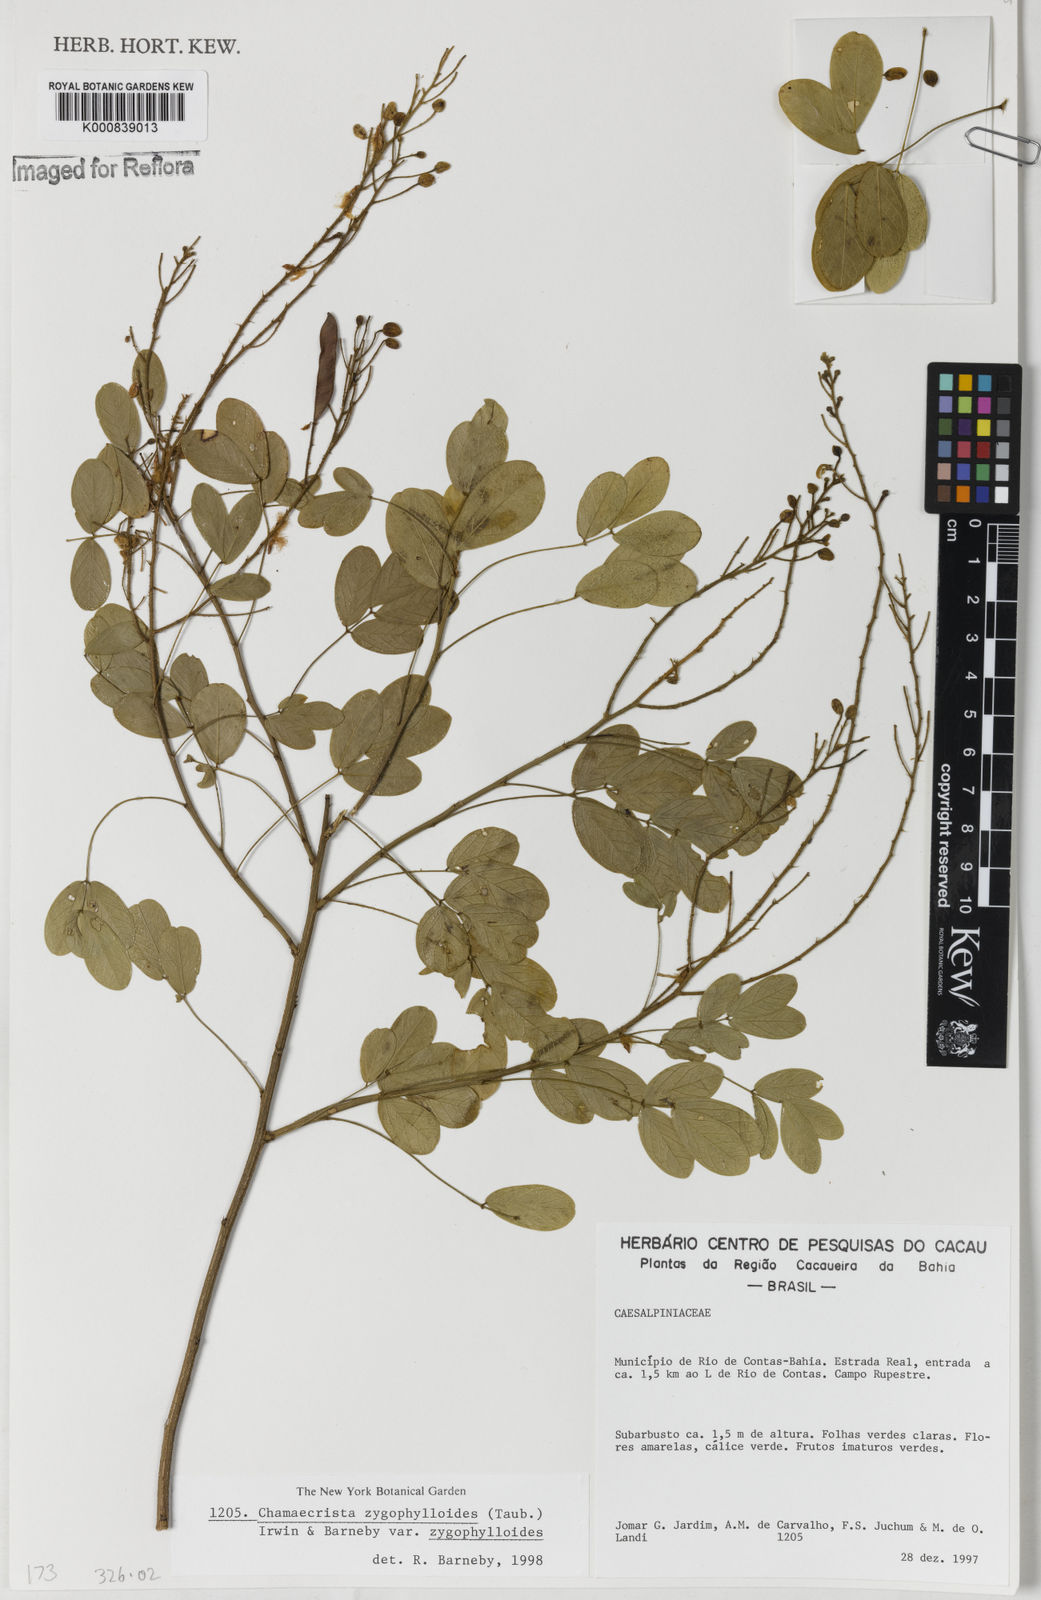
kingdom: Plantae
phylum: Tracheophyta
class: Magnoliopsida
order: Fabales
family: Fabaceae
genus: Chamaecrista
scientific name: Chamaecrista zygophylloides
